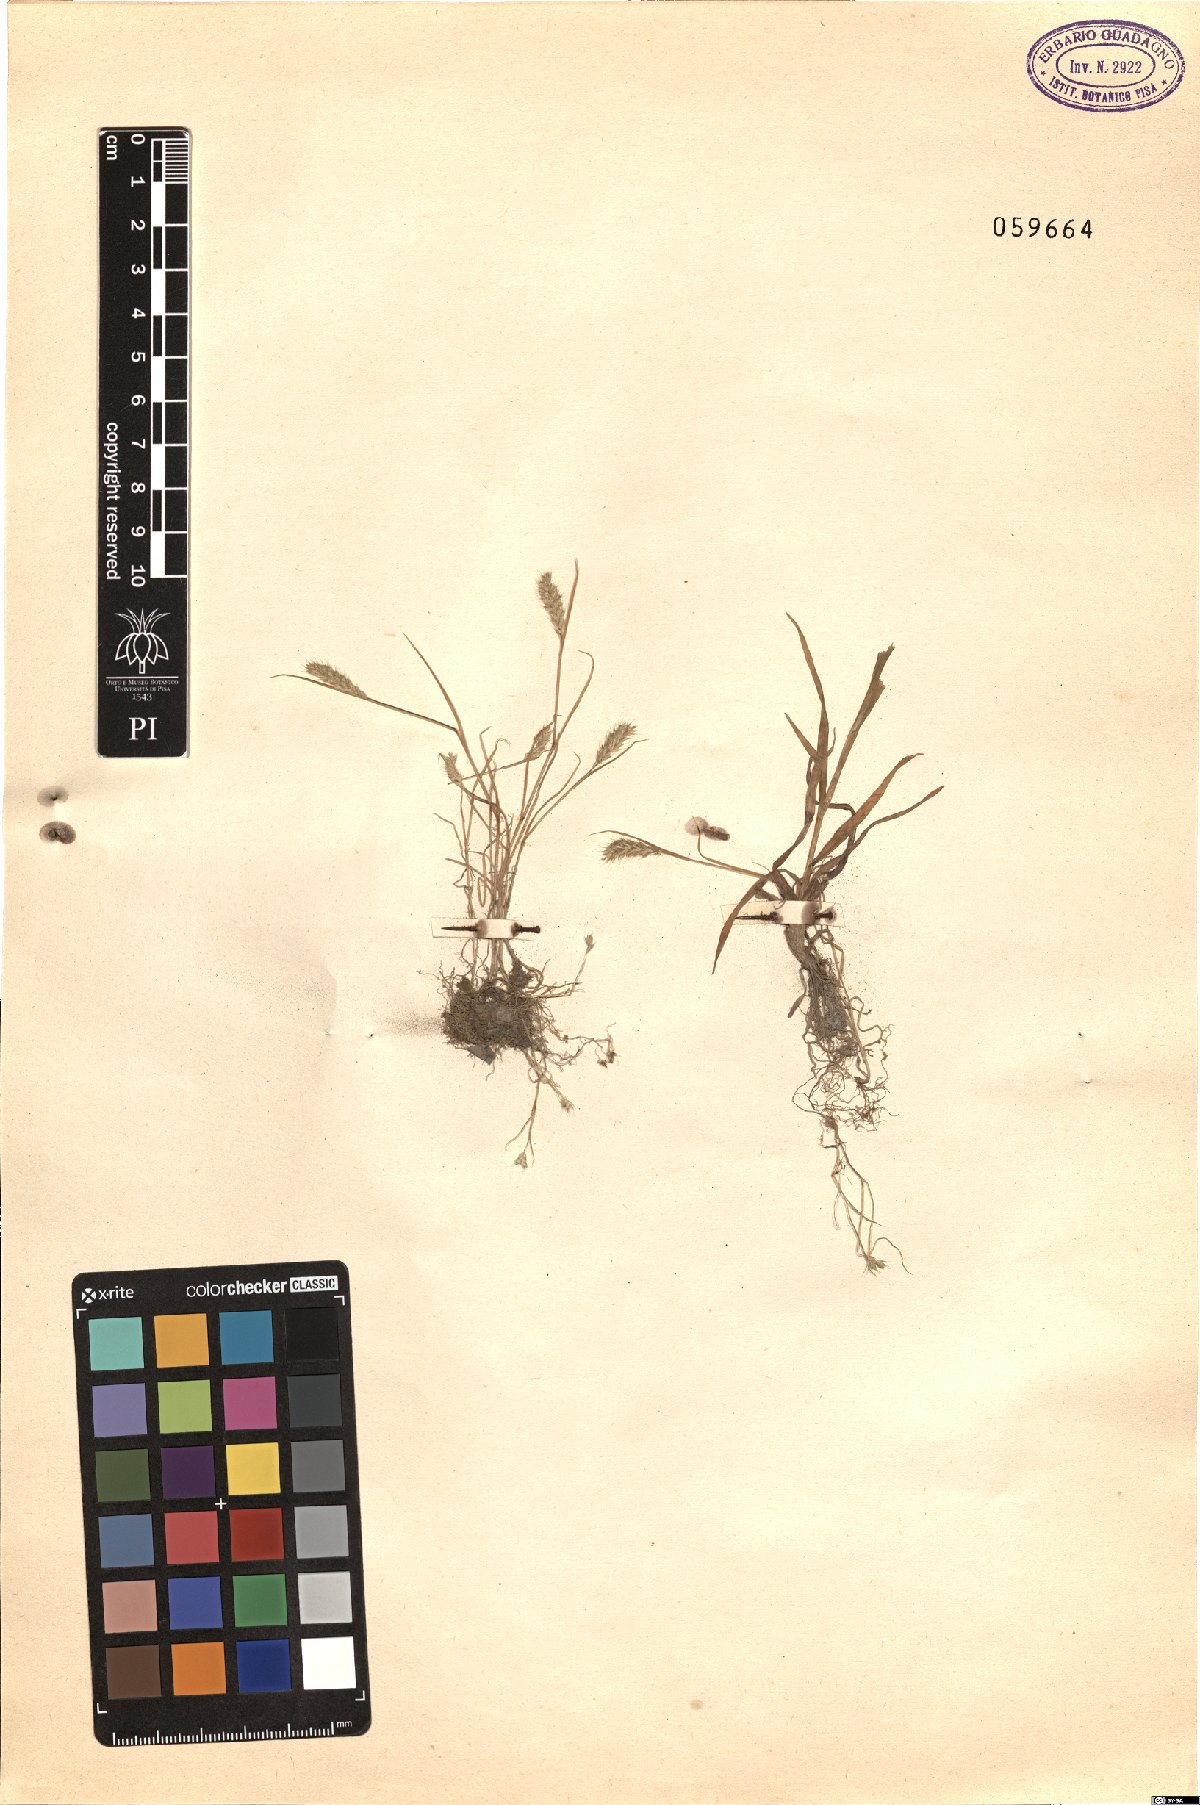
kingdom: Plantae
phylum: Tracheophyta
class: Liliopsida
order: Poales
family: Poaceae
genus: Polypogon
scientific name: Polypogon
